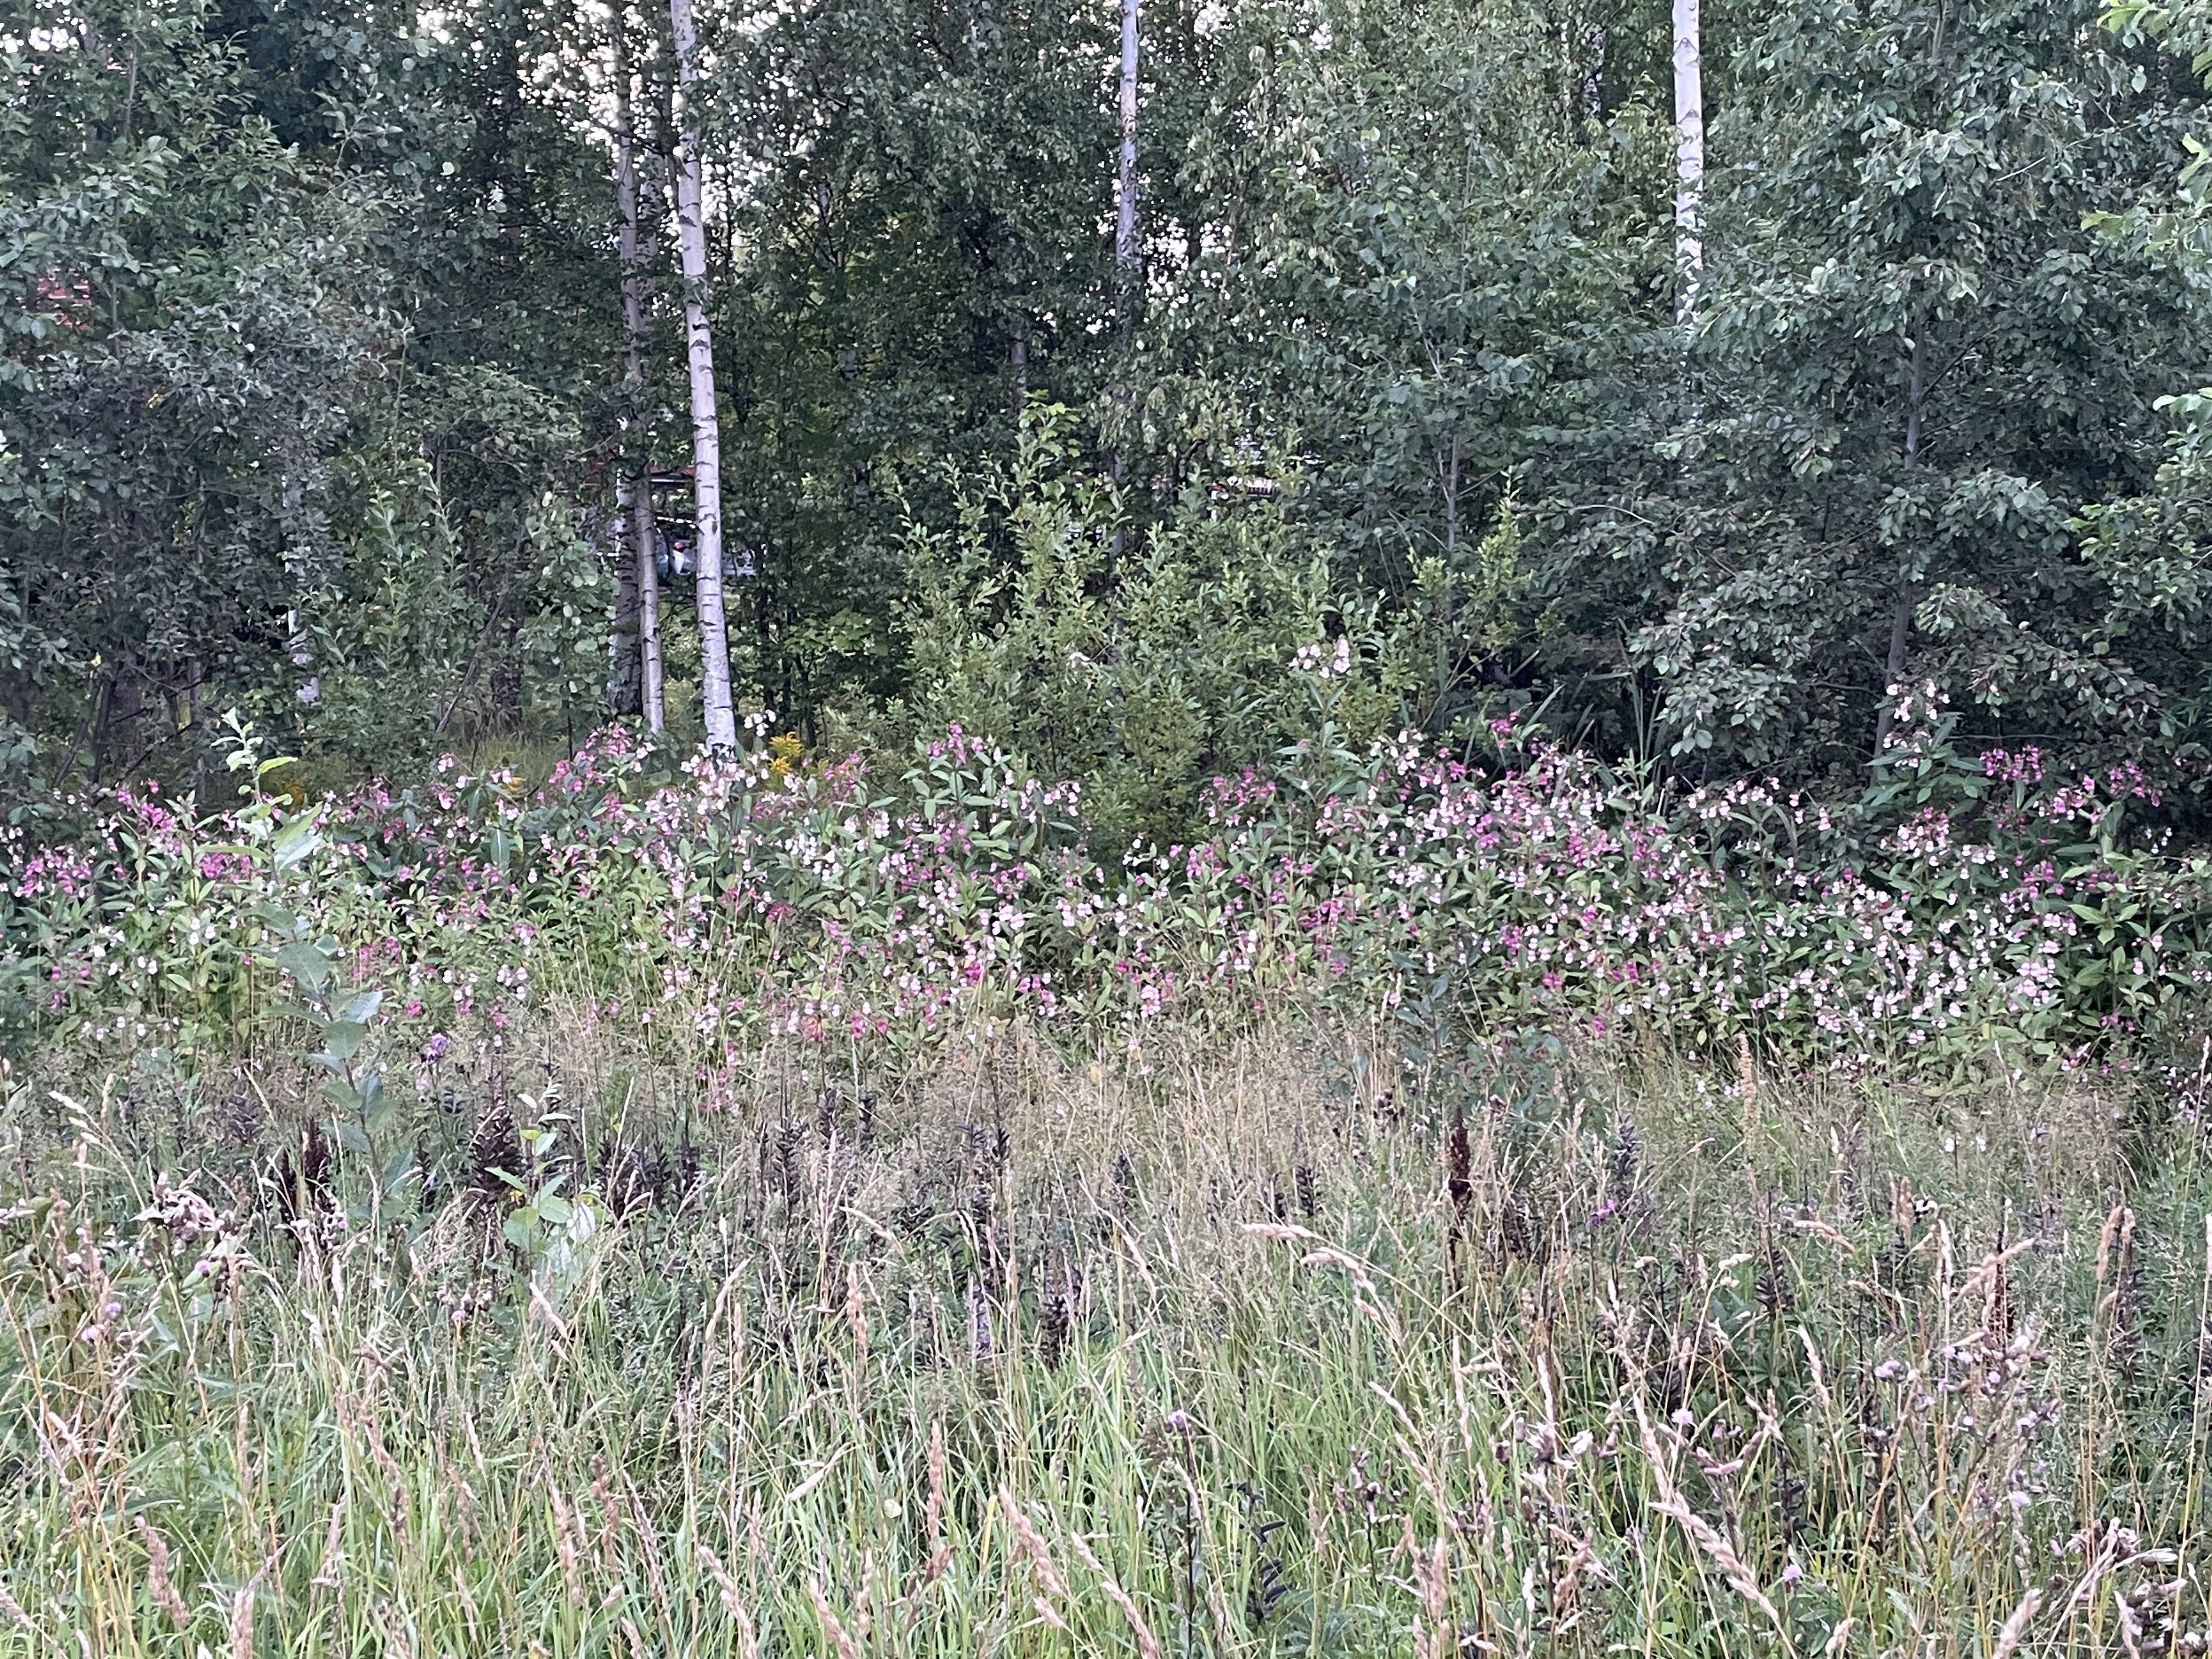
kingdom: Plantae
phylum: Tracheophyta
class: Magnoliopsida
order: Ericales
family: Balsaminaceae
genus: Impatiens
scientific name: Impatiens glandulifera
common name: Himalayan balsam
